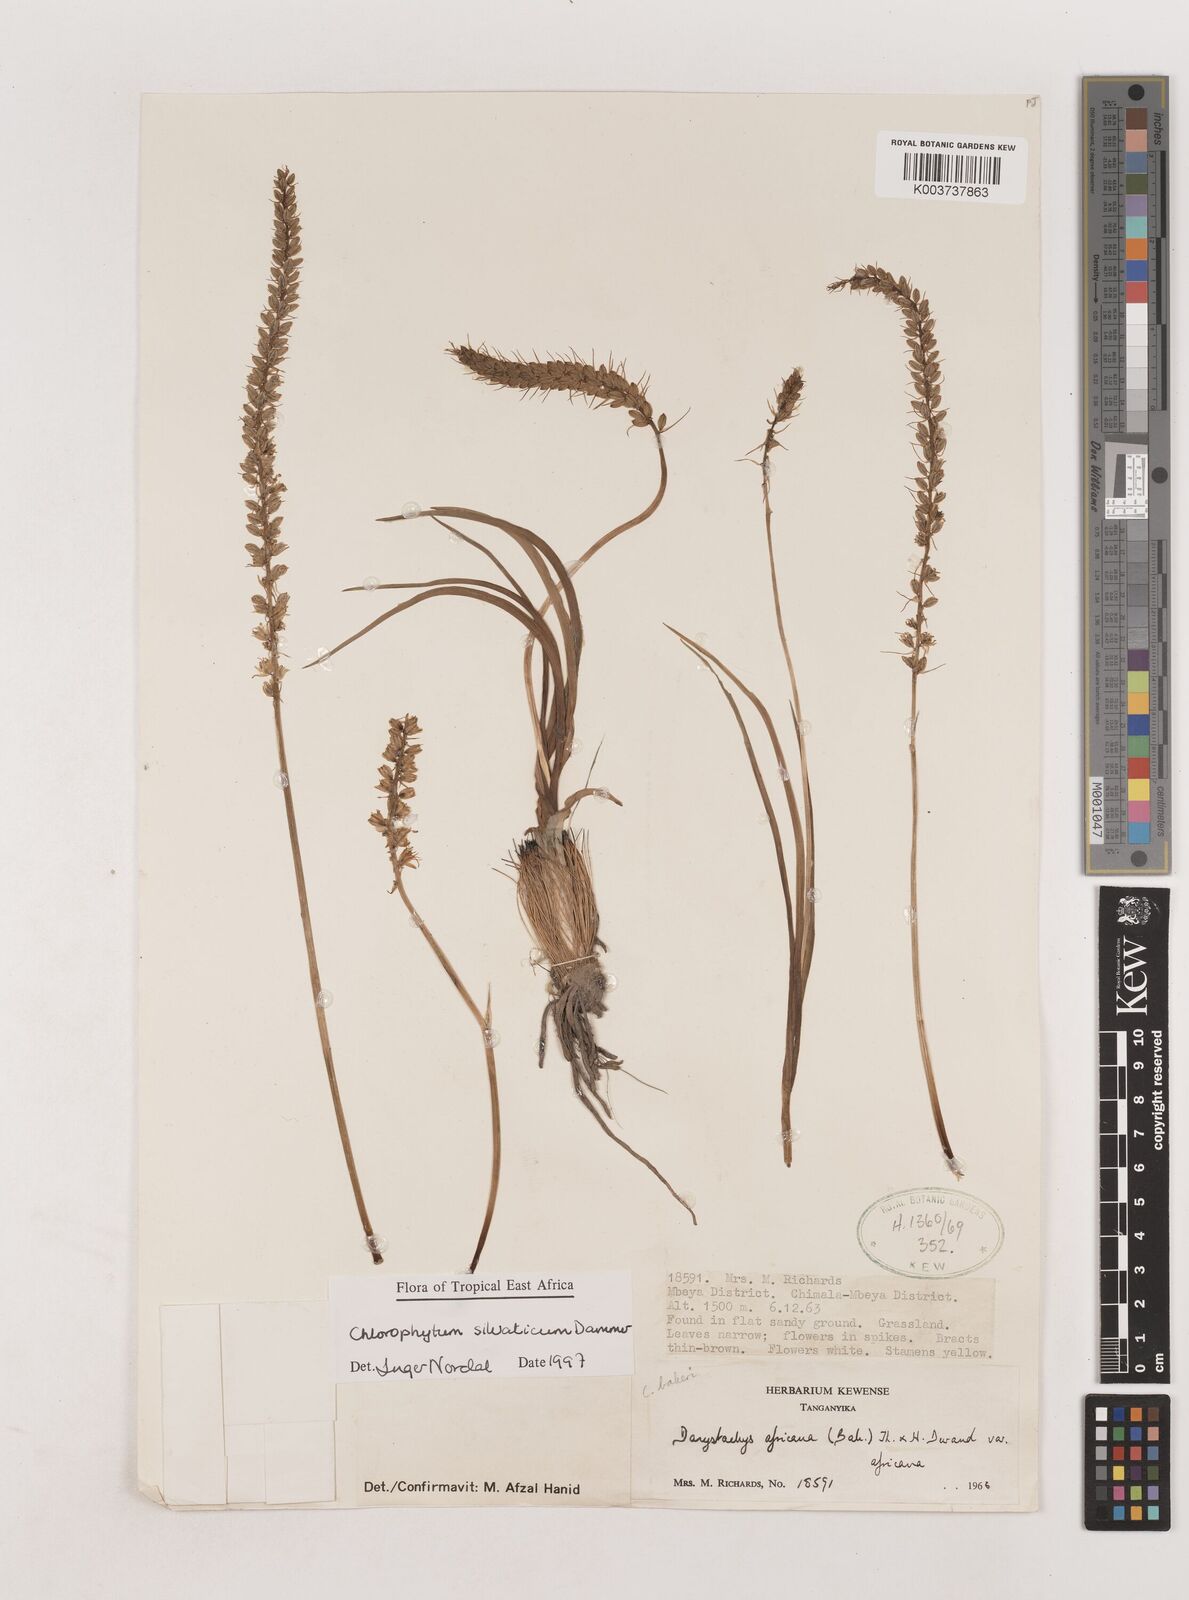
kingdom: Plantae
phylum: Tracheophyta
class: Liliopsida
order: Asparagales
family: Asparagaceae
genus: Chlorophytum
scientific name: Chlorophytum africanum
